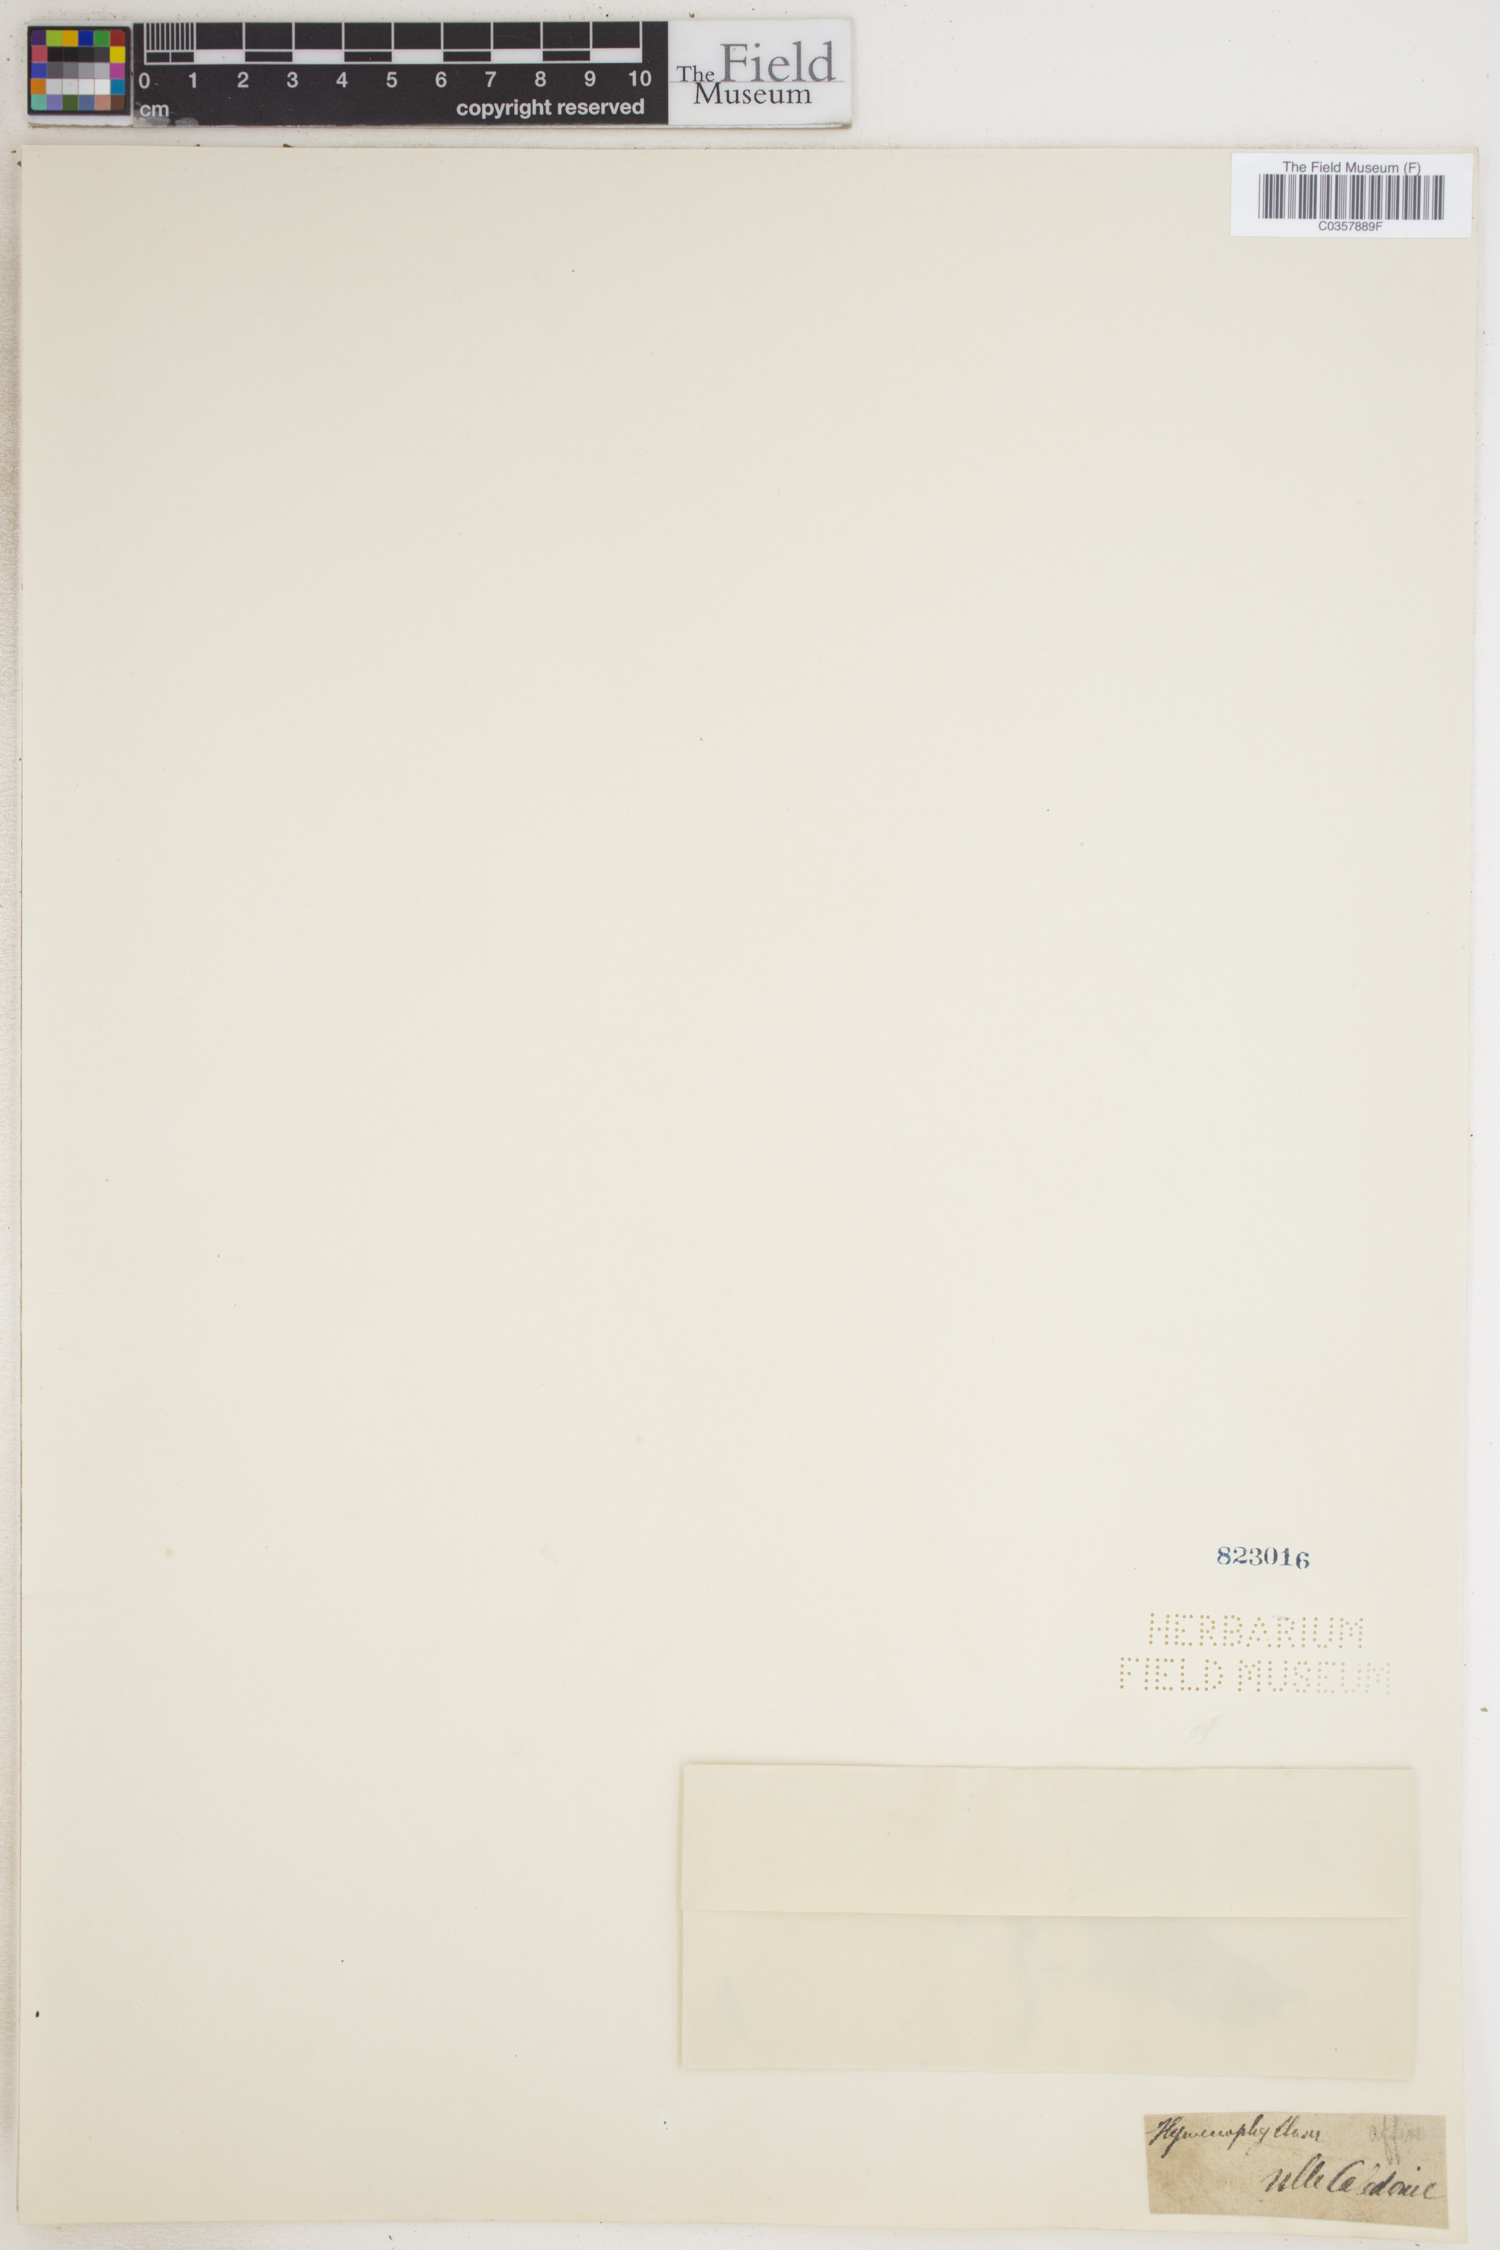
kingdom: Plantae
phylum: Tracheophyta
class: Polypodiopsida
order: Hymenophyllales
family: Hymenophyllaceae
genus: Hymenophyllum
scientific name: Hymenophyllum
